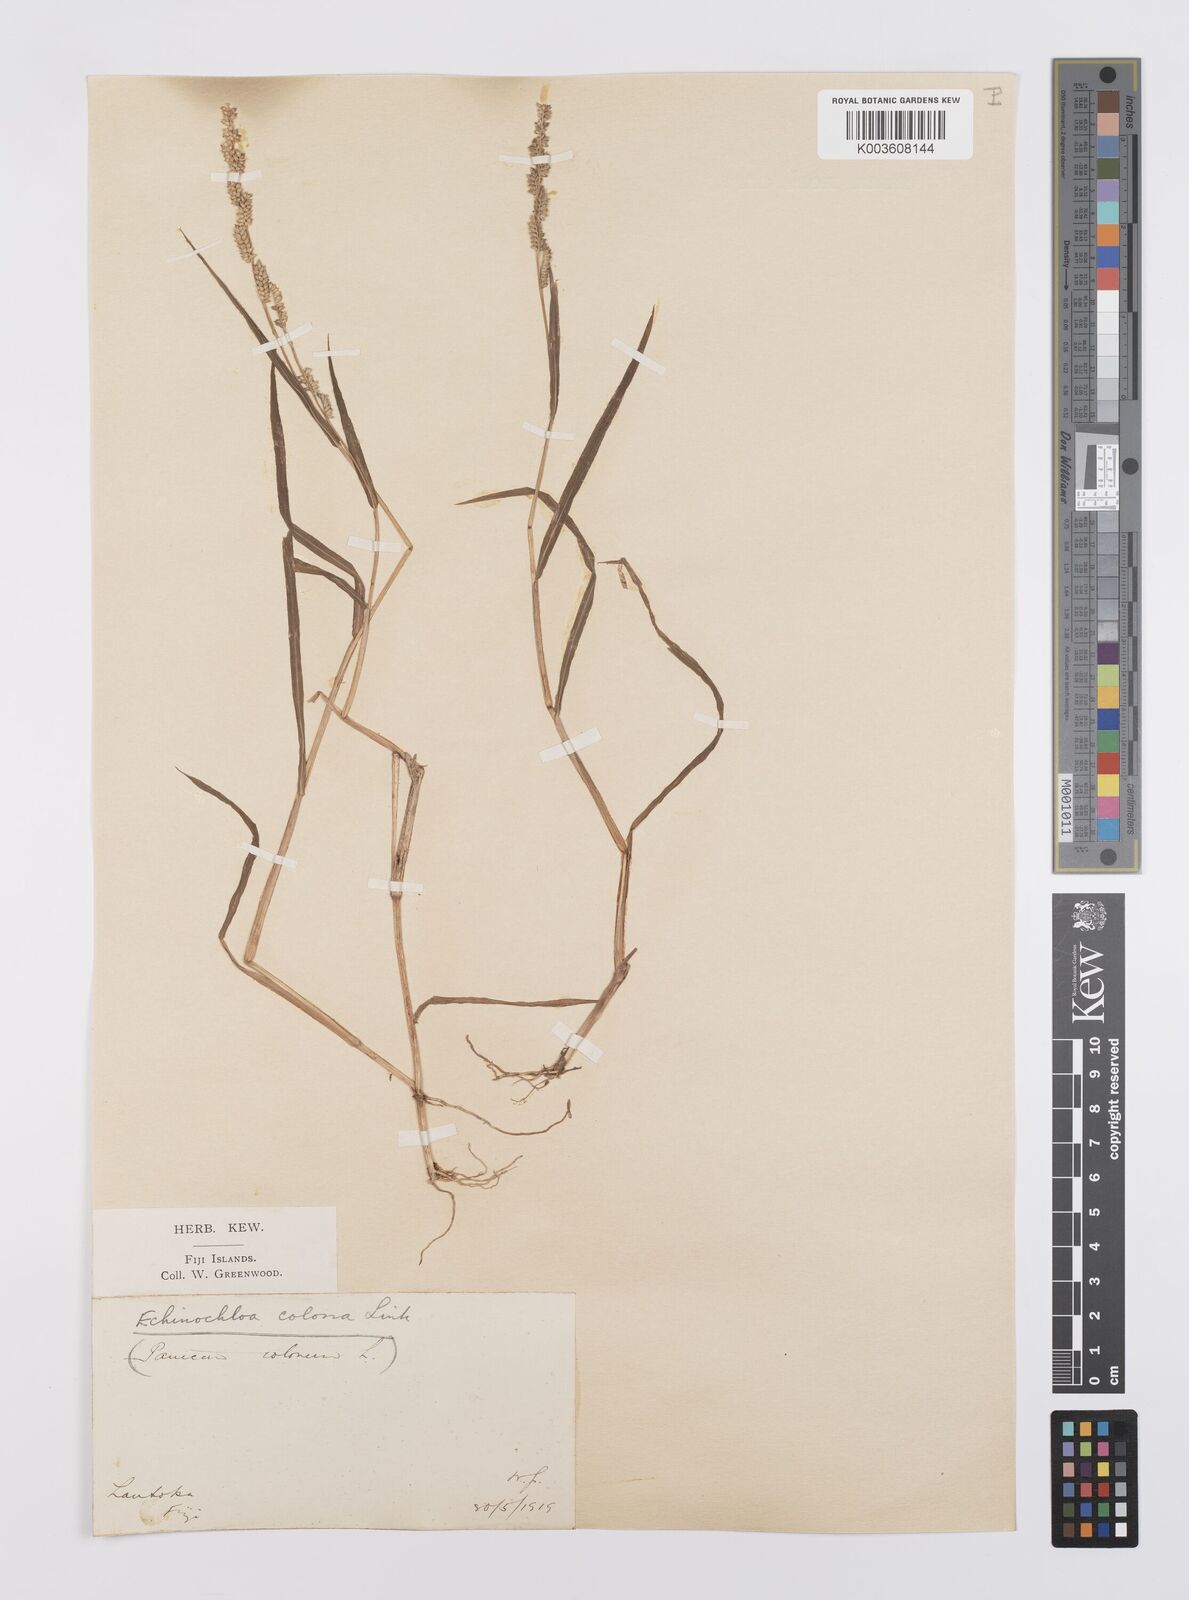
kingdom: Plantae
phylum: Tracheophyta
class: Liliopsida
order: Poales
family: Poaceae
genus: Echinochloa
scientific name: Echinochloa colonum
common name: Jungle rice
